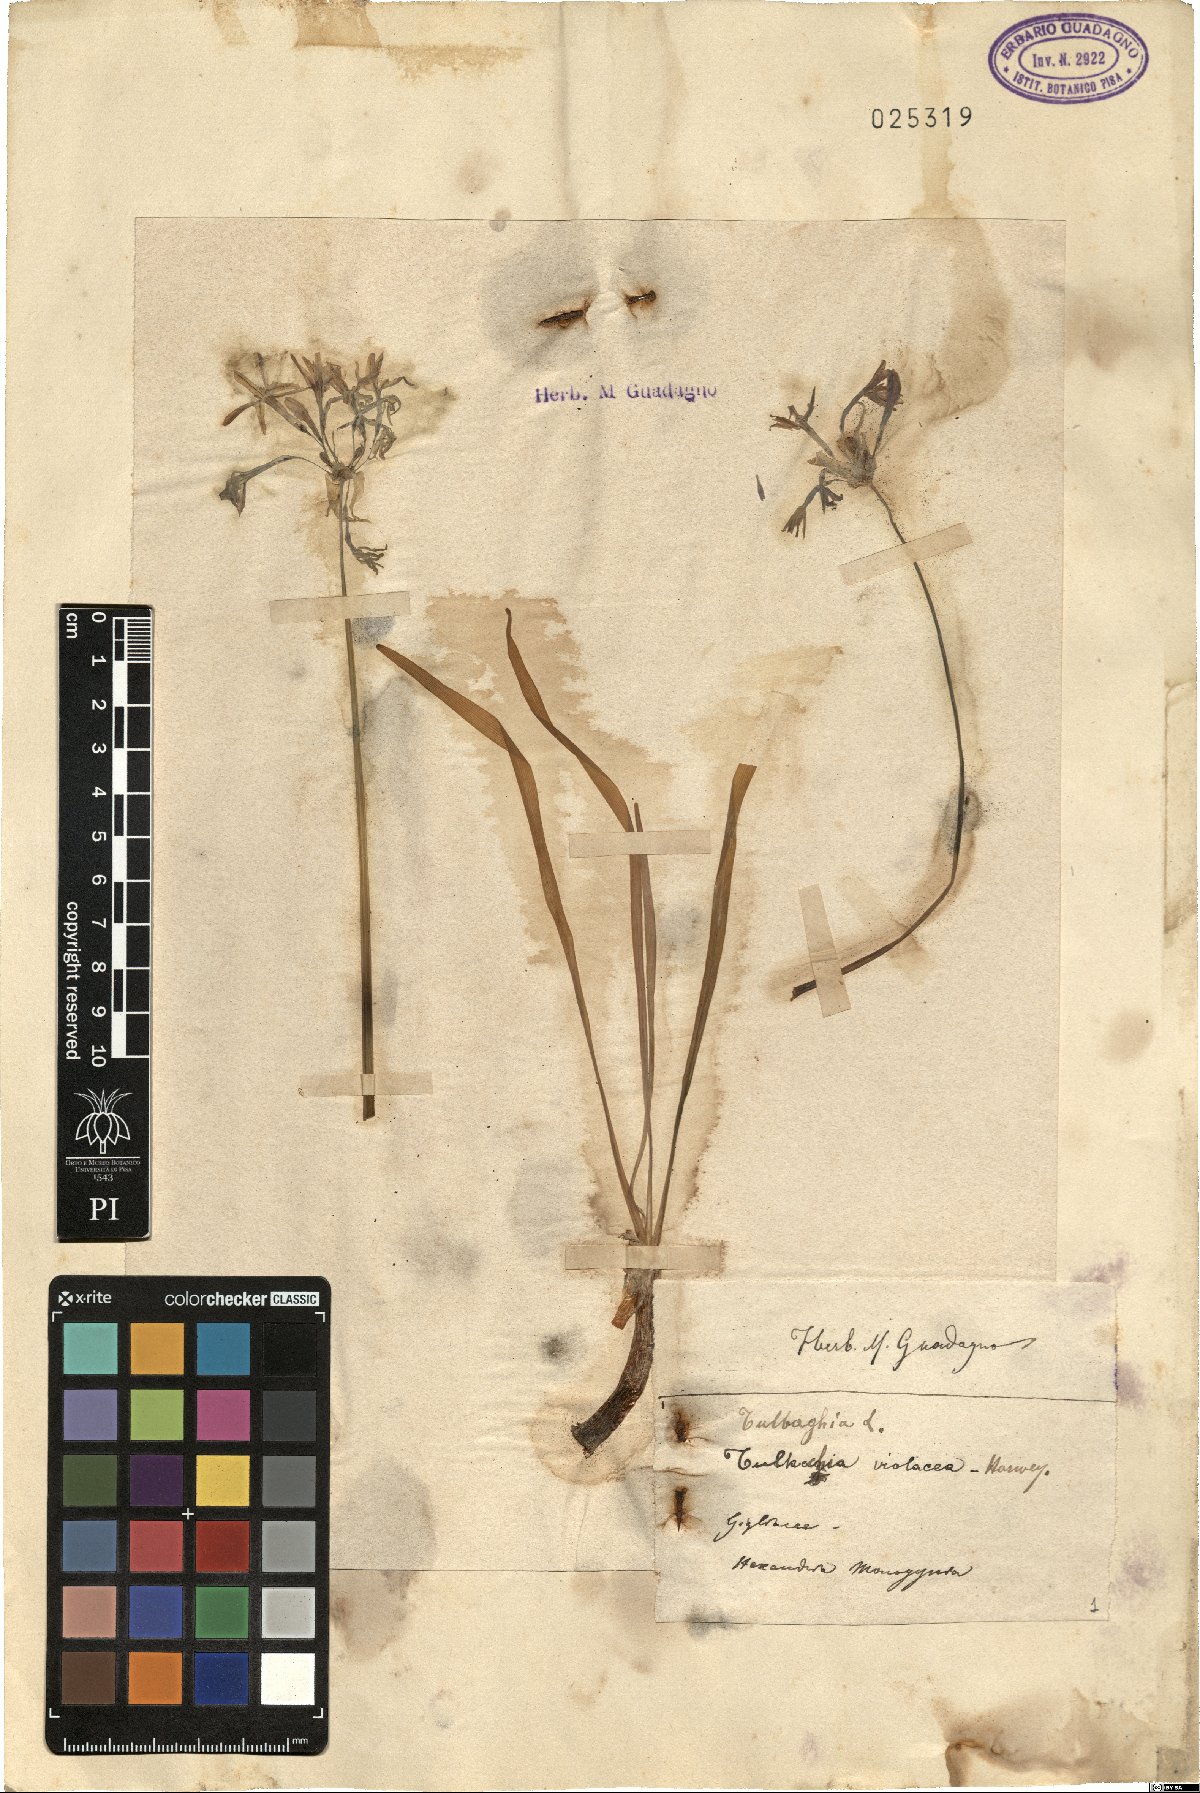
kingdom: Plantae
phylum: Tracheophyta
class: Liliopsida
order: Asparagales
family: Amaryllidaceae
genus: Tulbaghia
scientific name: Tulbaghia violacea
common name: Society garlic
